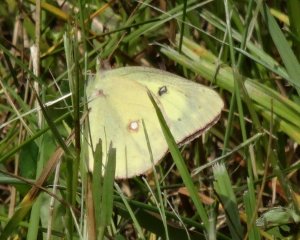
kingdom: Animalia
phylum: Arthropoda
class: Insecta
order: Lepidoptera
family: Pieridae
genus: Colias
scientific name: Colias philodice
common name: Clouded Sulphur
